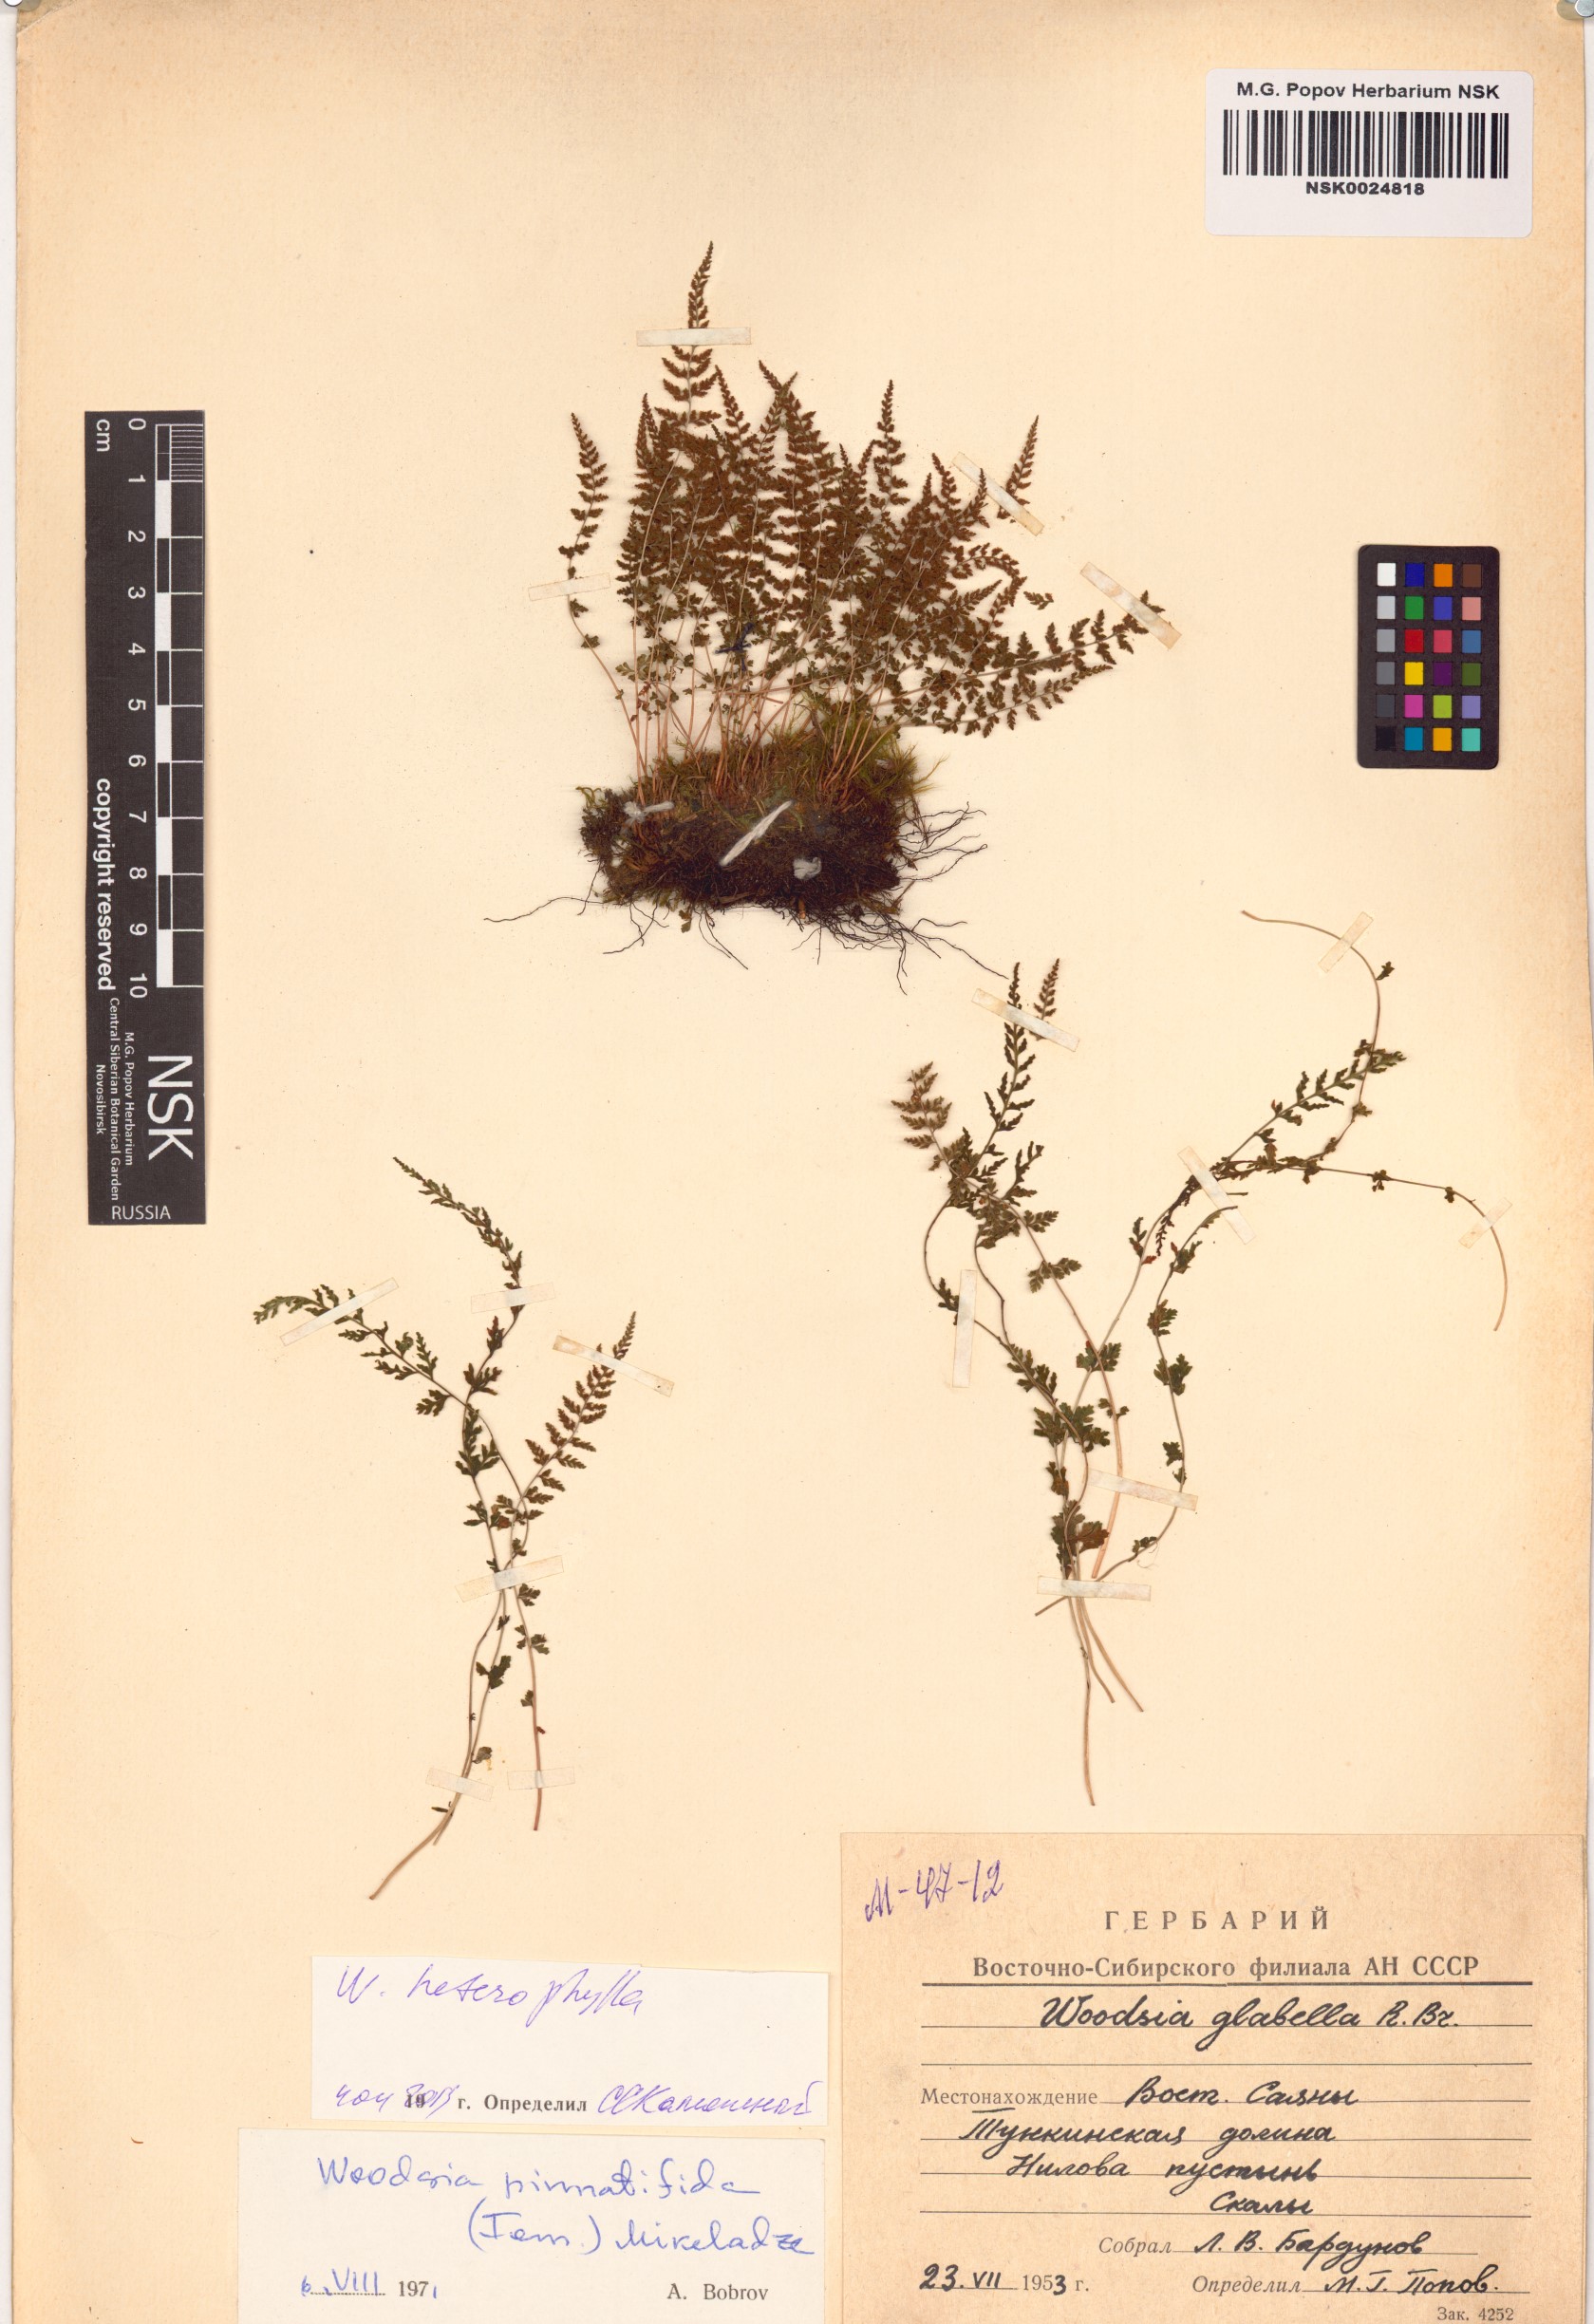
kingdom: Plantae
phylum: Tracheophyta
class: Polypodiopsida
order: Polypodiales
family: Woodsiaceae
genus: Woodsia
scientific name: Woodsia pulchella
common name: Graceful woodsia
